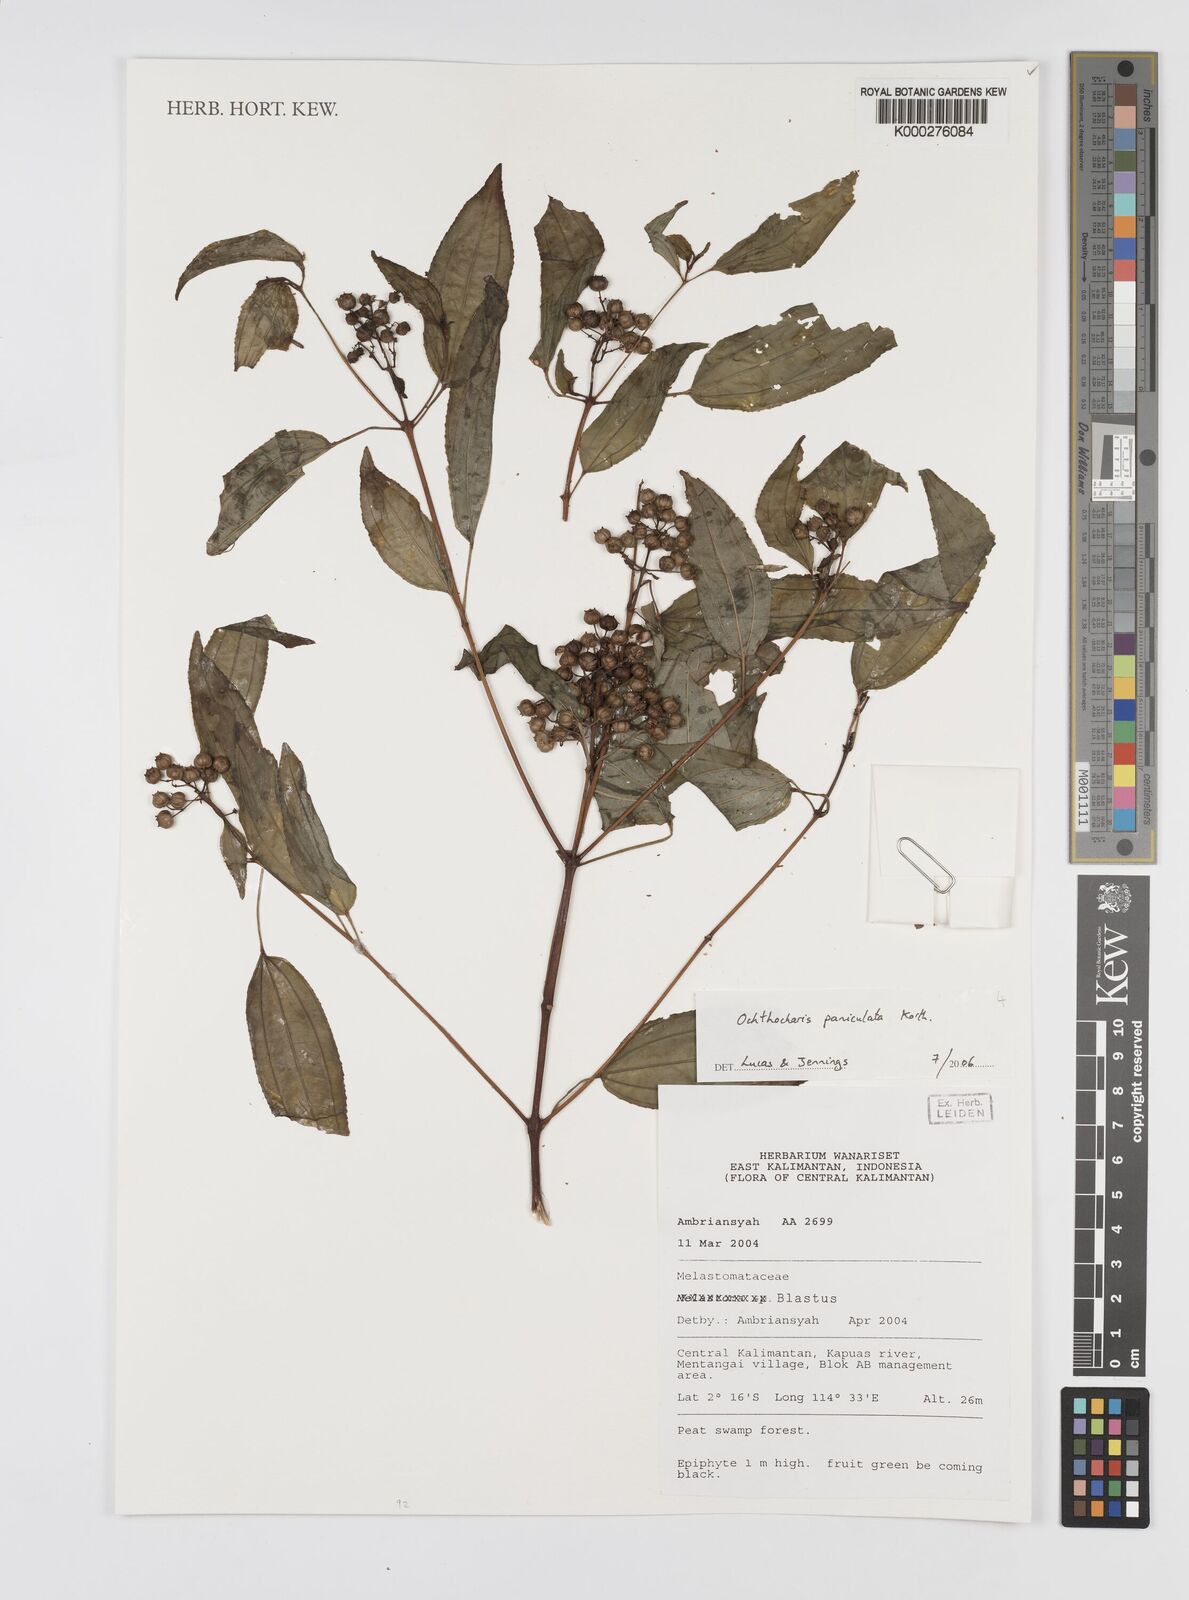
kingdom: Plantae
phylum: Tracheophyta
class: Magnoliopsida
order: Myrtales
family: Melastomataceae
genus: Ochthocharis
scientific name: Ochthocharis paniculata
